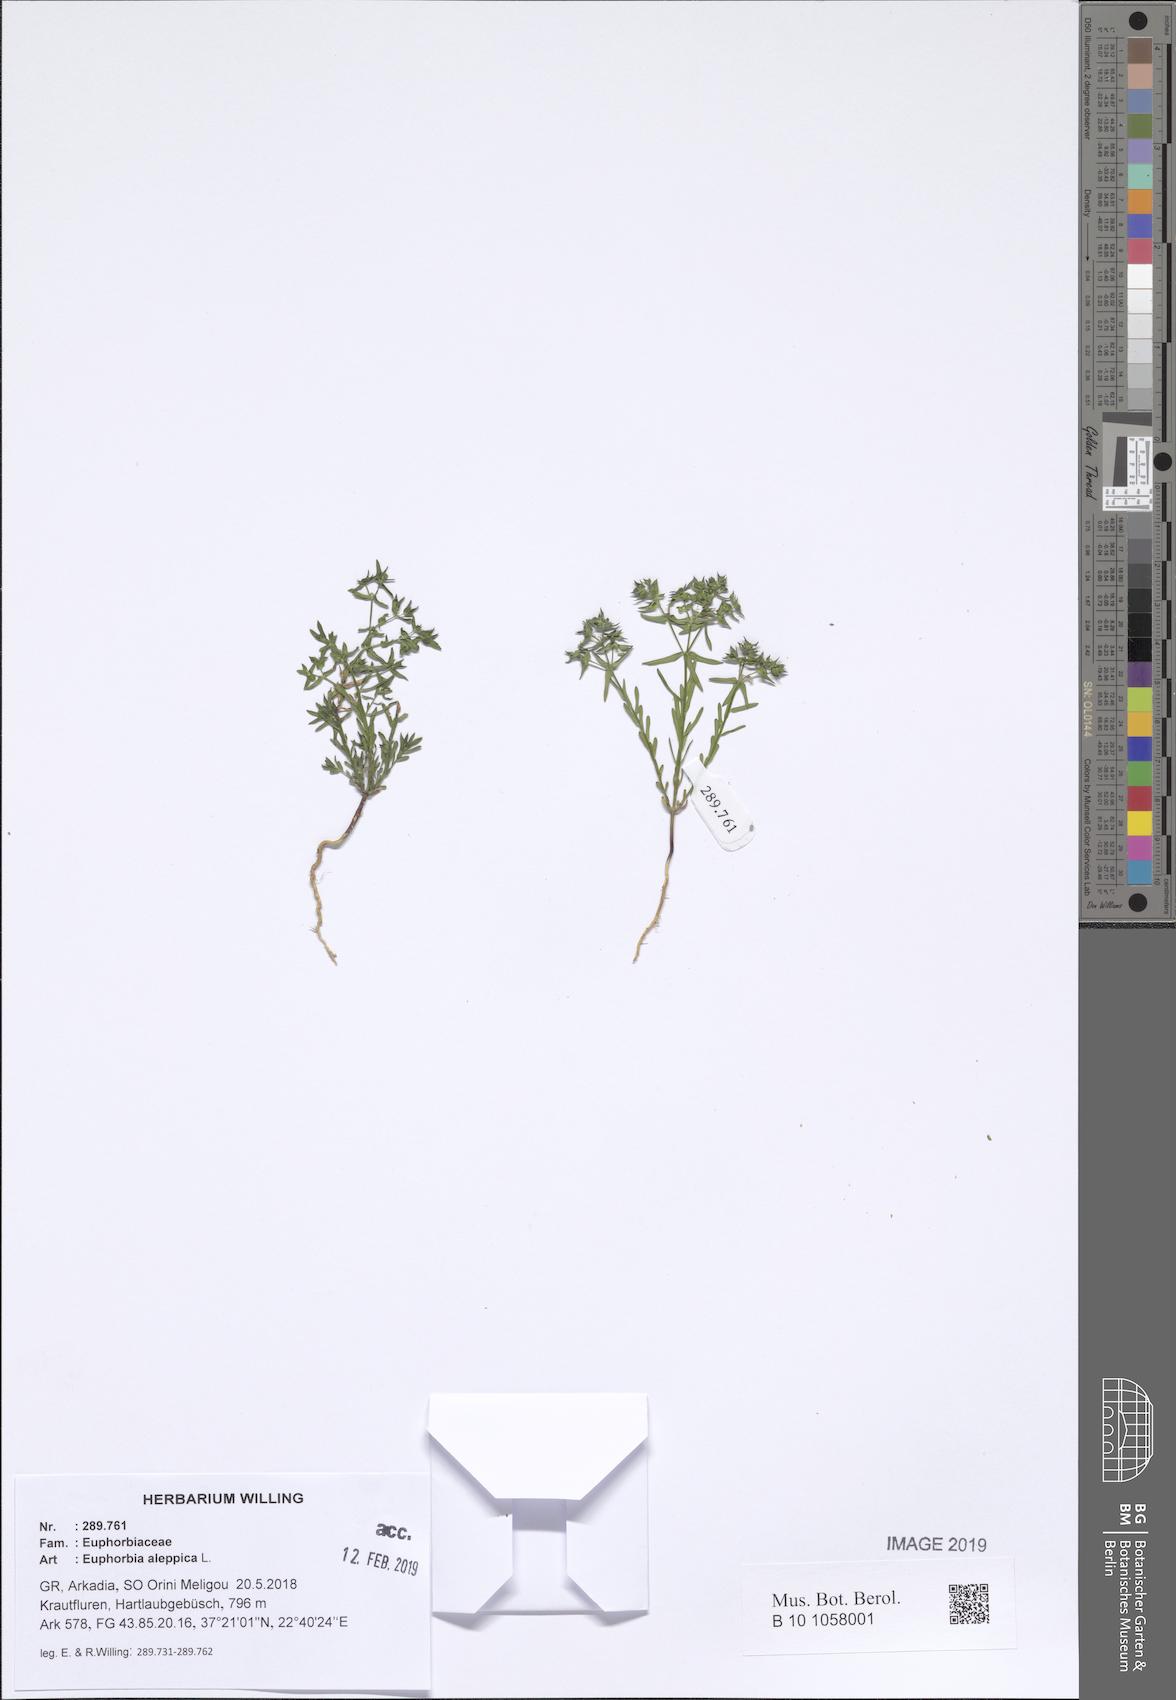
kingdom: Plantae
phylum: Tracheophyta
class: Magnoliopsida
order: Malpighiales
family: Euphorbiaceae
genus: Euphorbia
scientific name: Euphorbia exigua
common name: Dwarf spurge
